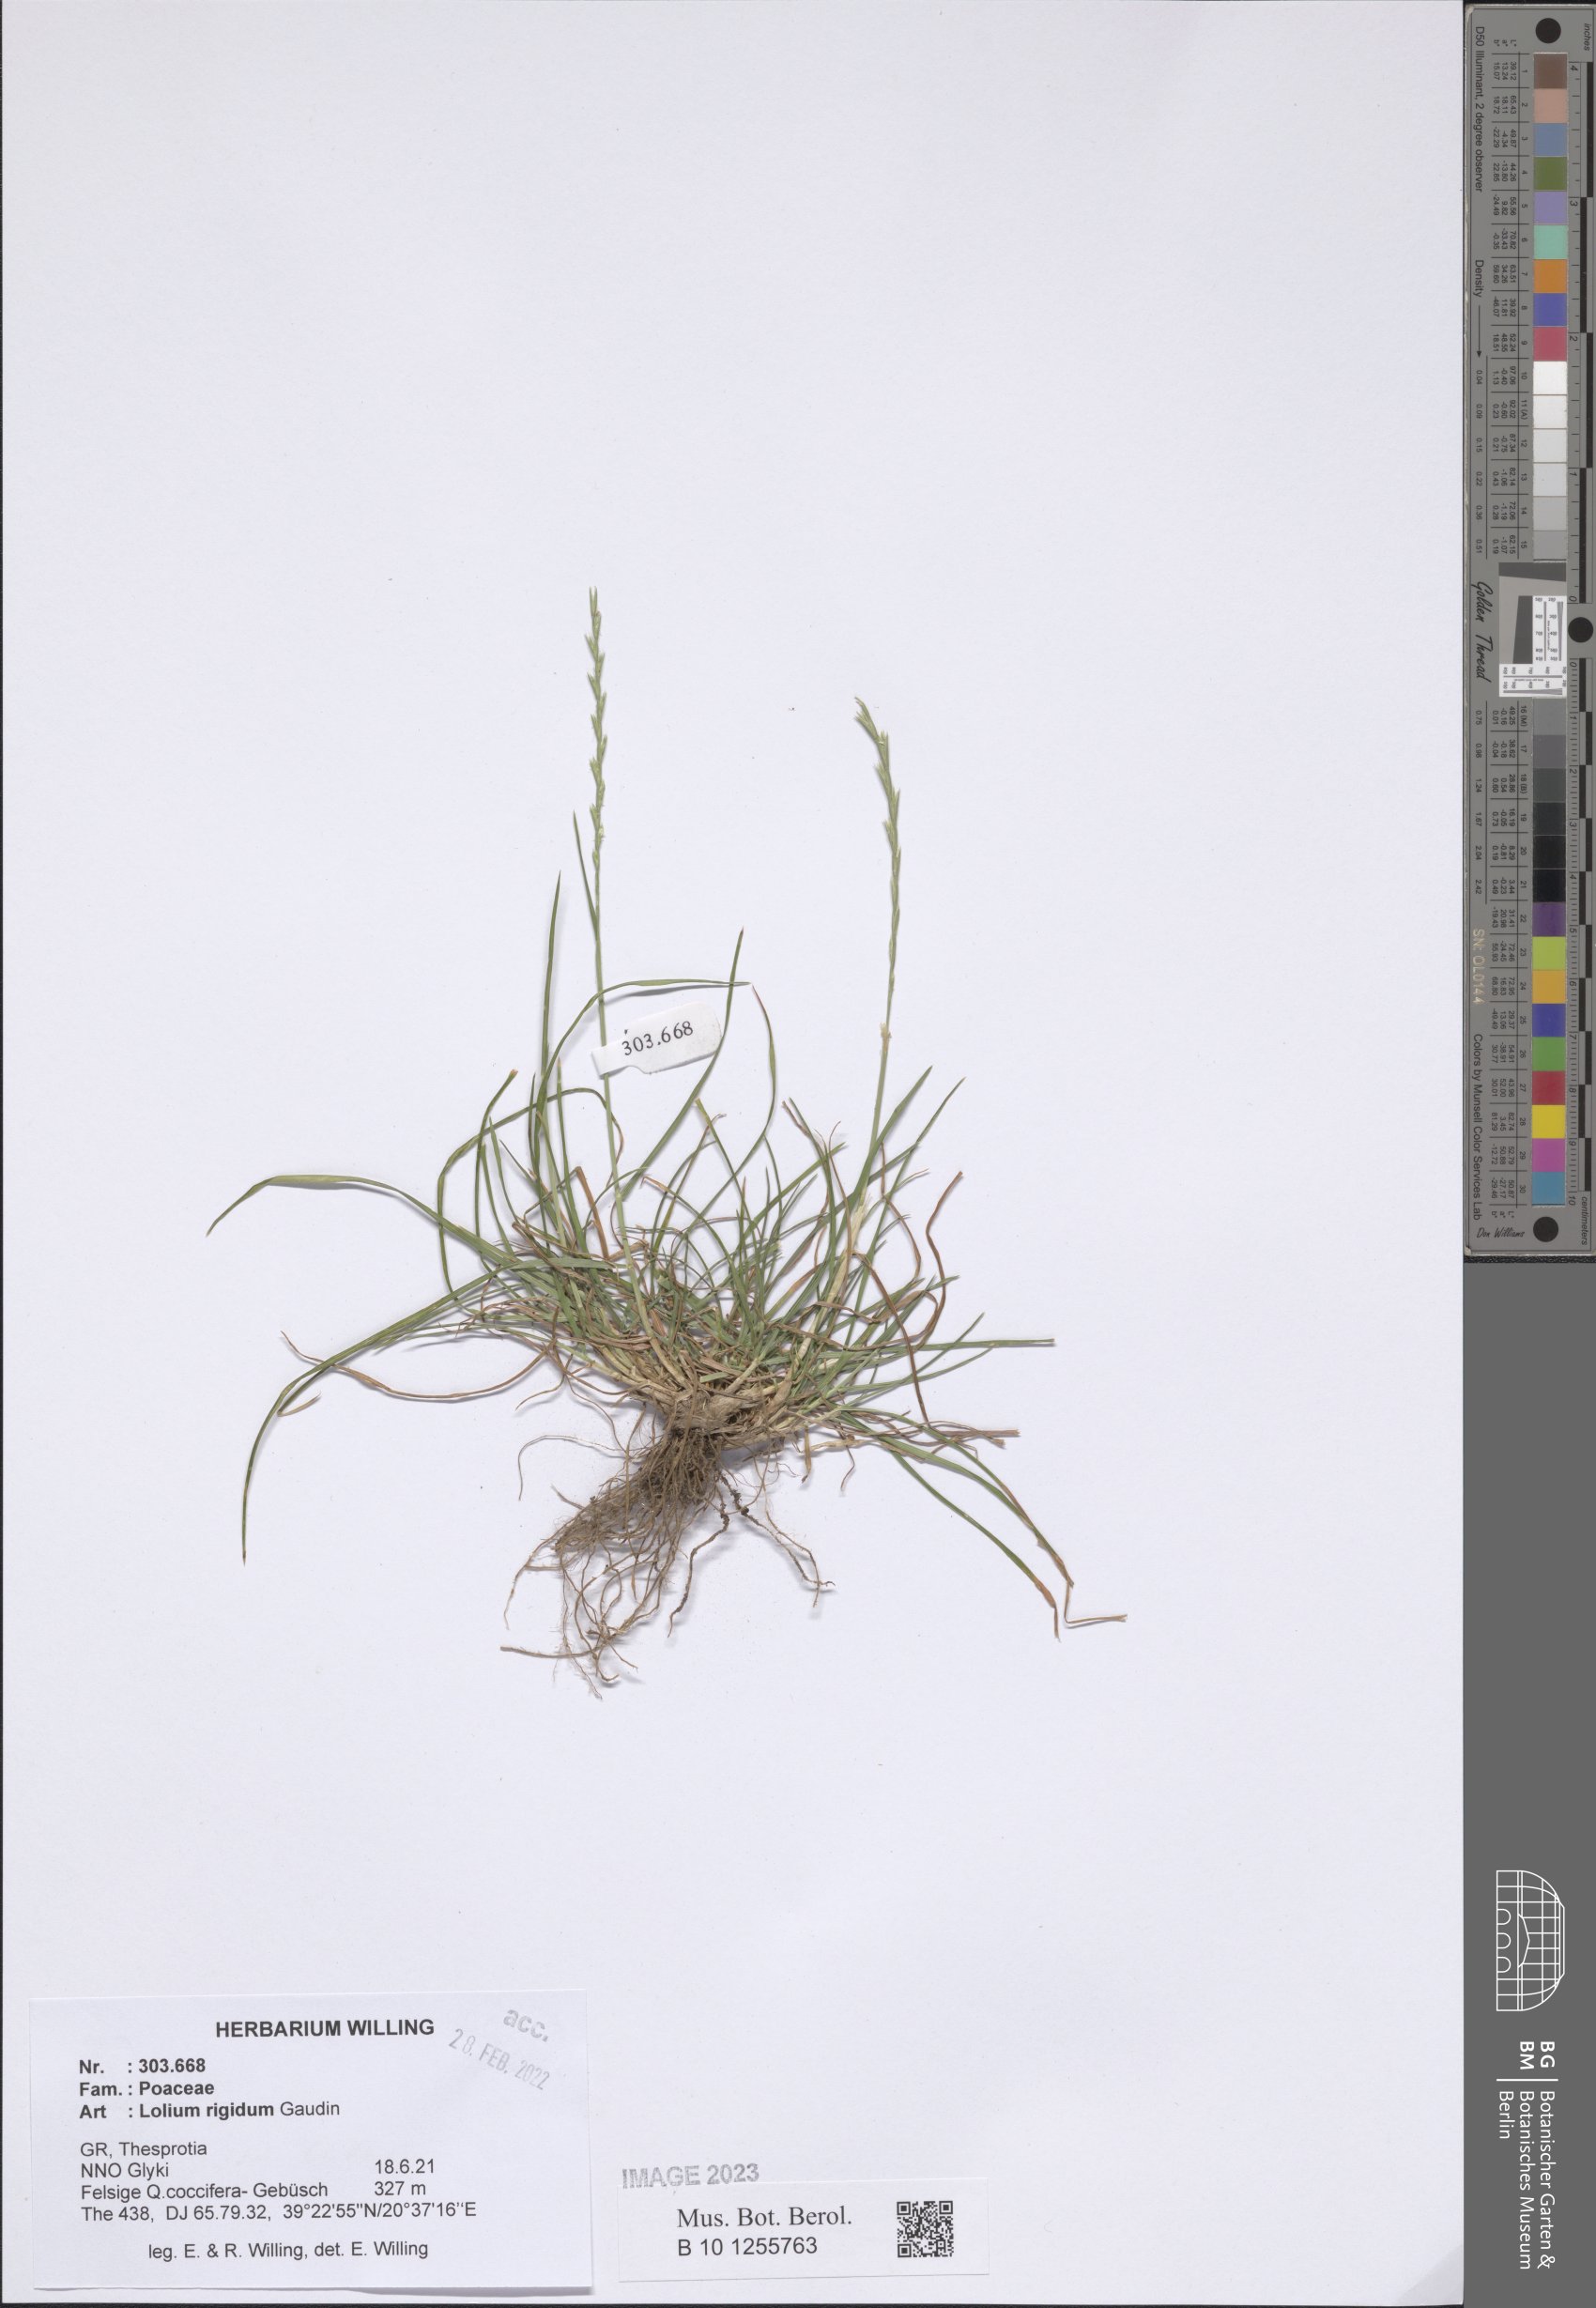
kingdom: Plantae
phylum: Tracheophyta
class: Liliopsida
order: Poales
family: Poaceae
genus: Lolium
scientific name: Lolium rigidum
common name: Wimmera ryegrass
